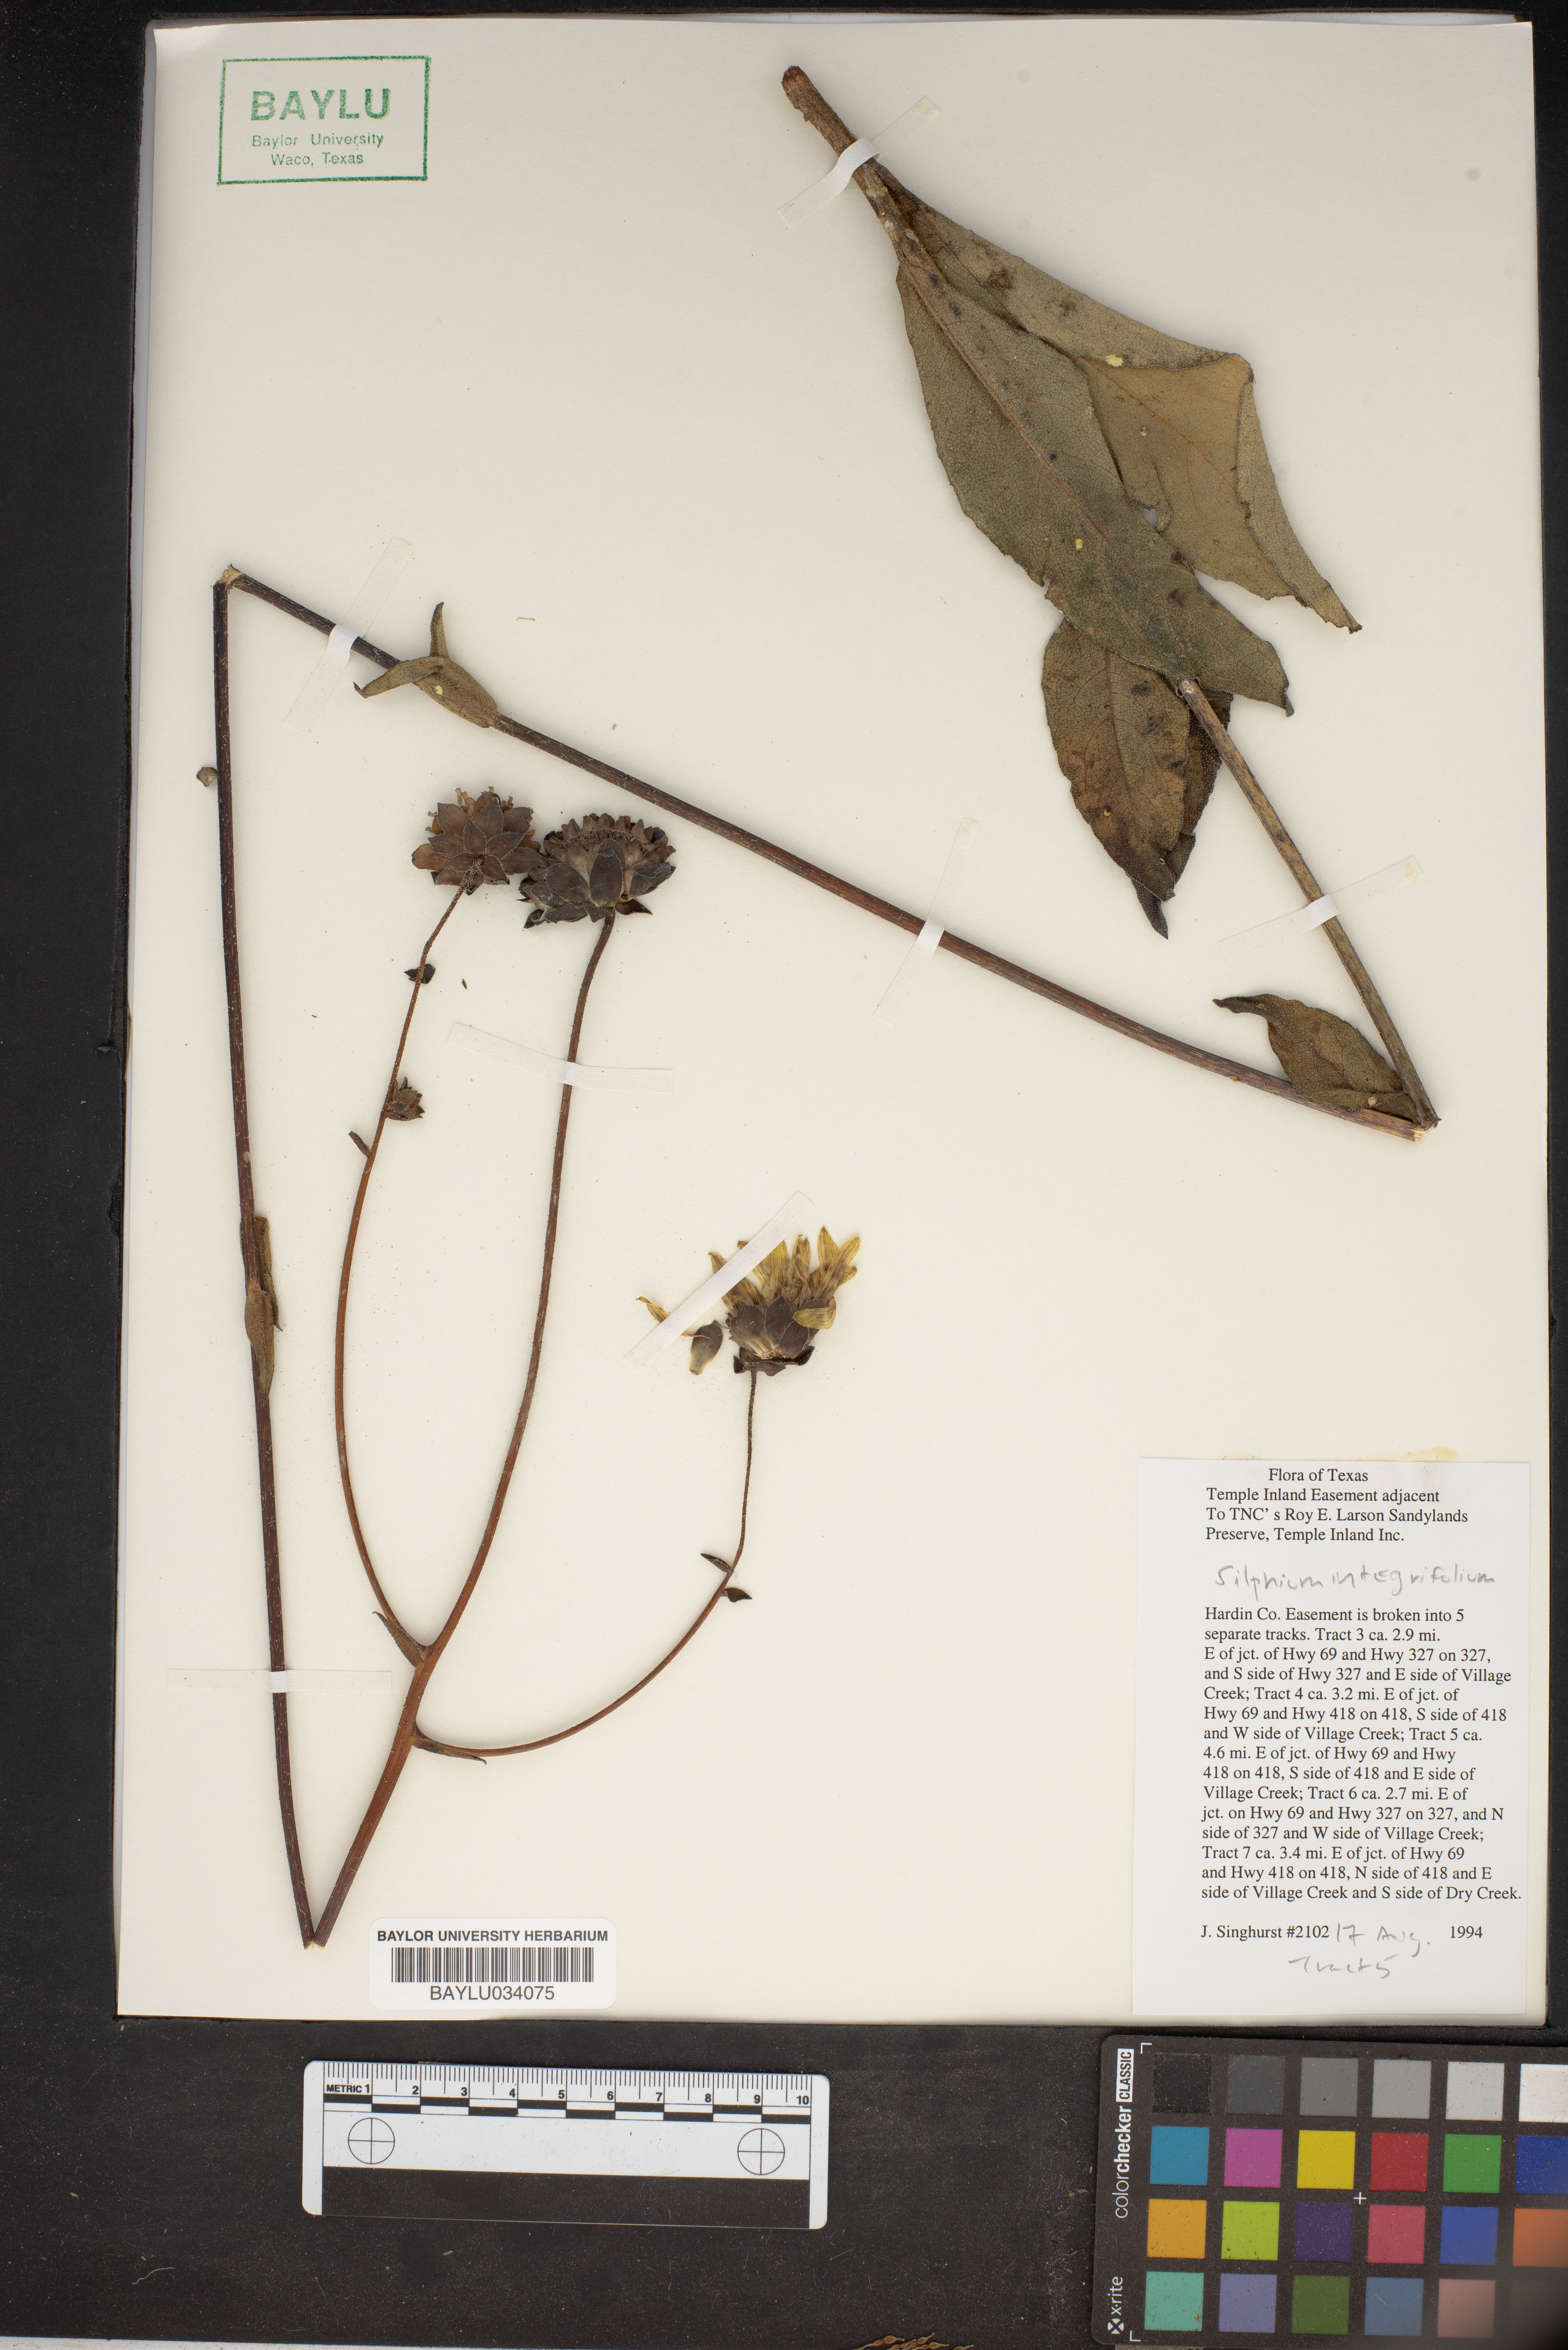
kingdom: Plantae
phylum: Tracheophyta
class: Magnoliopsida
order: Asterales
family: Asteraceae
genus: Silphium
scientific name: Silphium integrifolium
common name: Whole-leaf rosinweed
